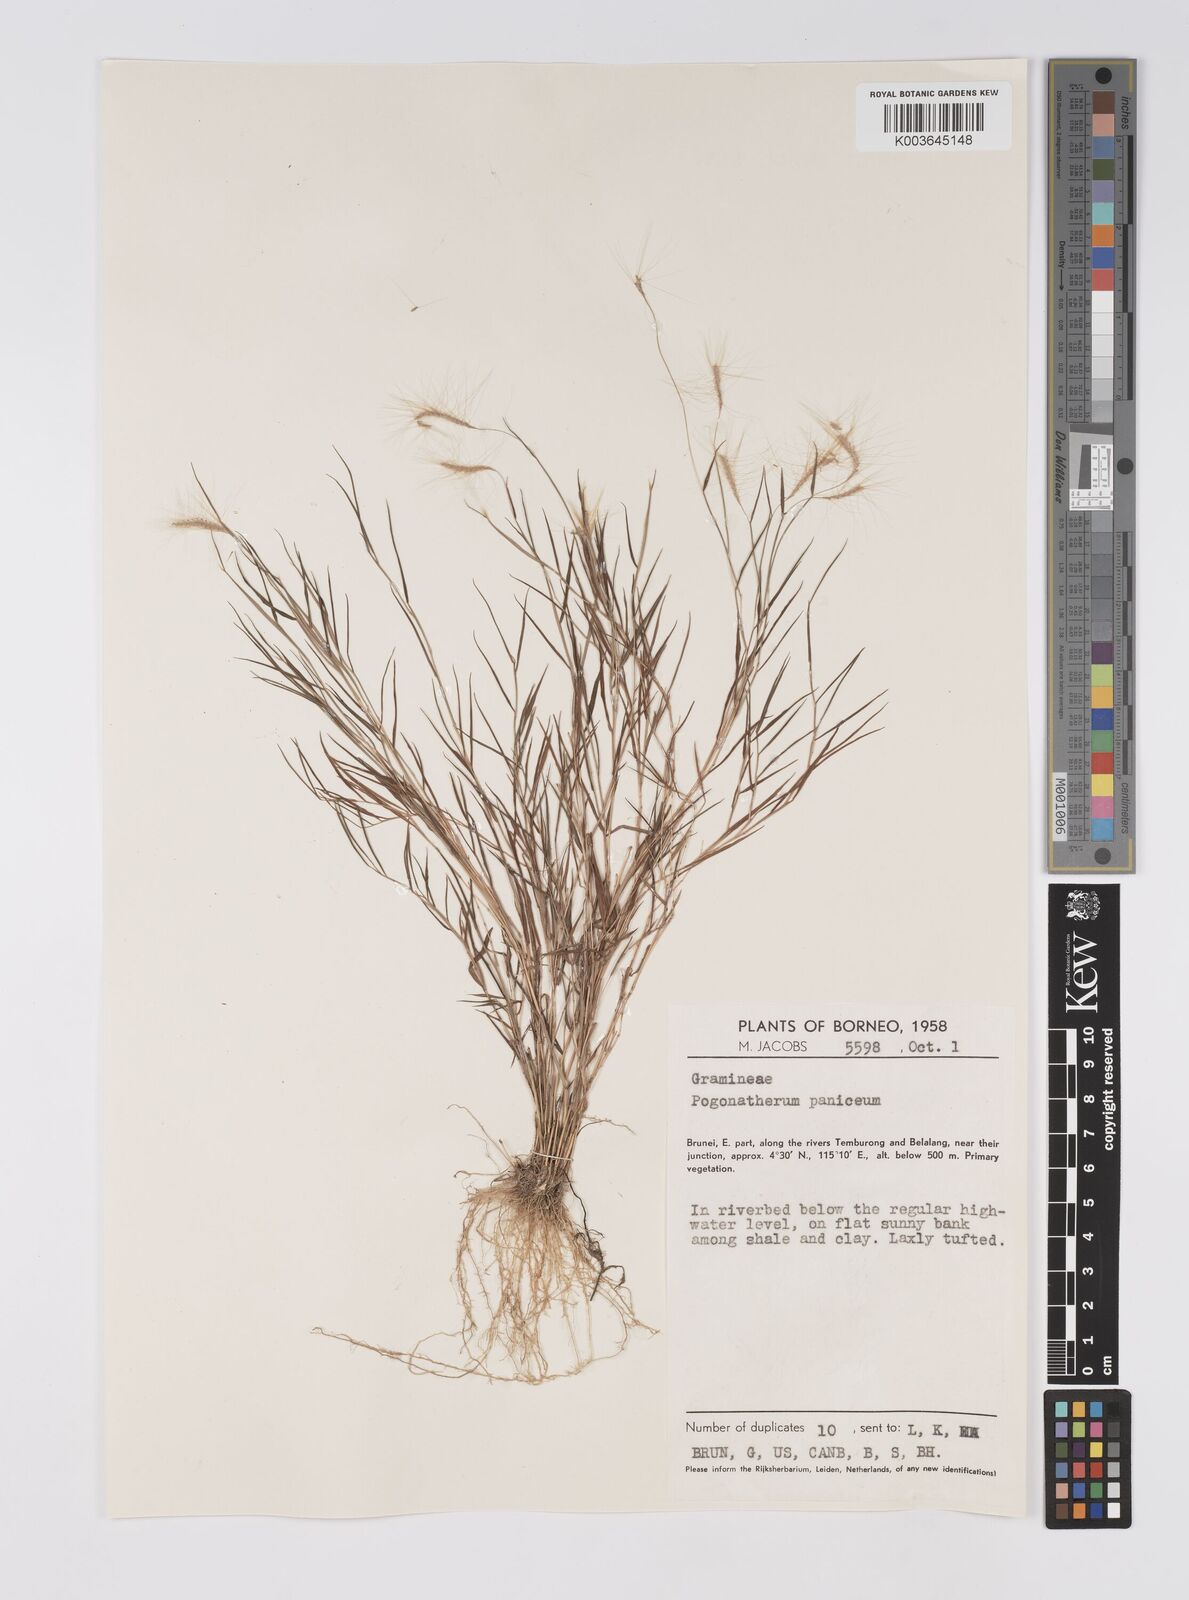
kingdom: Plantae
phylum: Tracheophyta
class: Liliopsida
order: Poales
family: Poaceae
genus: Pogonatherum
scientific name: Pogonatherum crinitum
